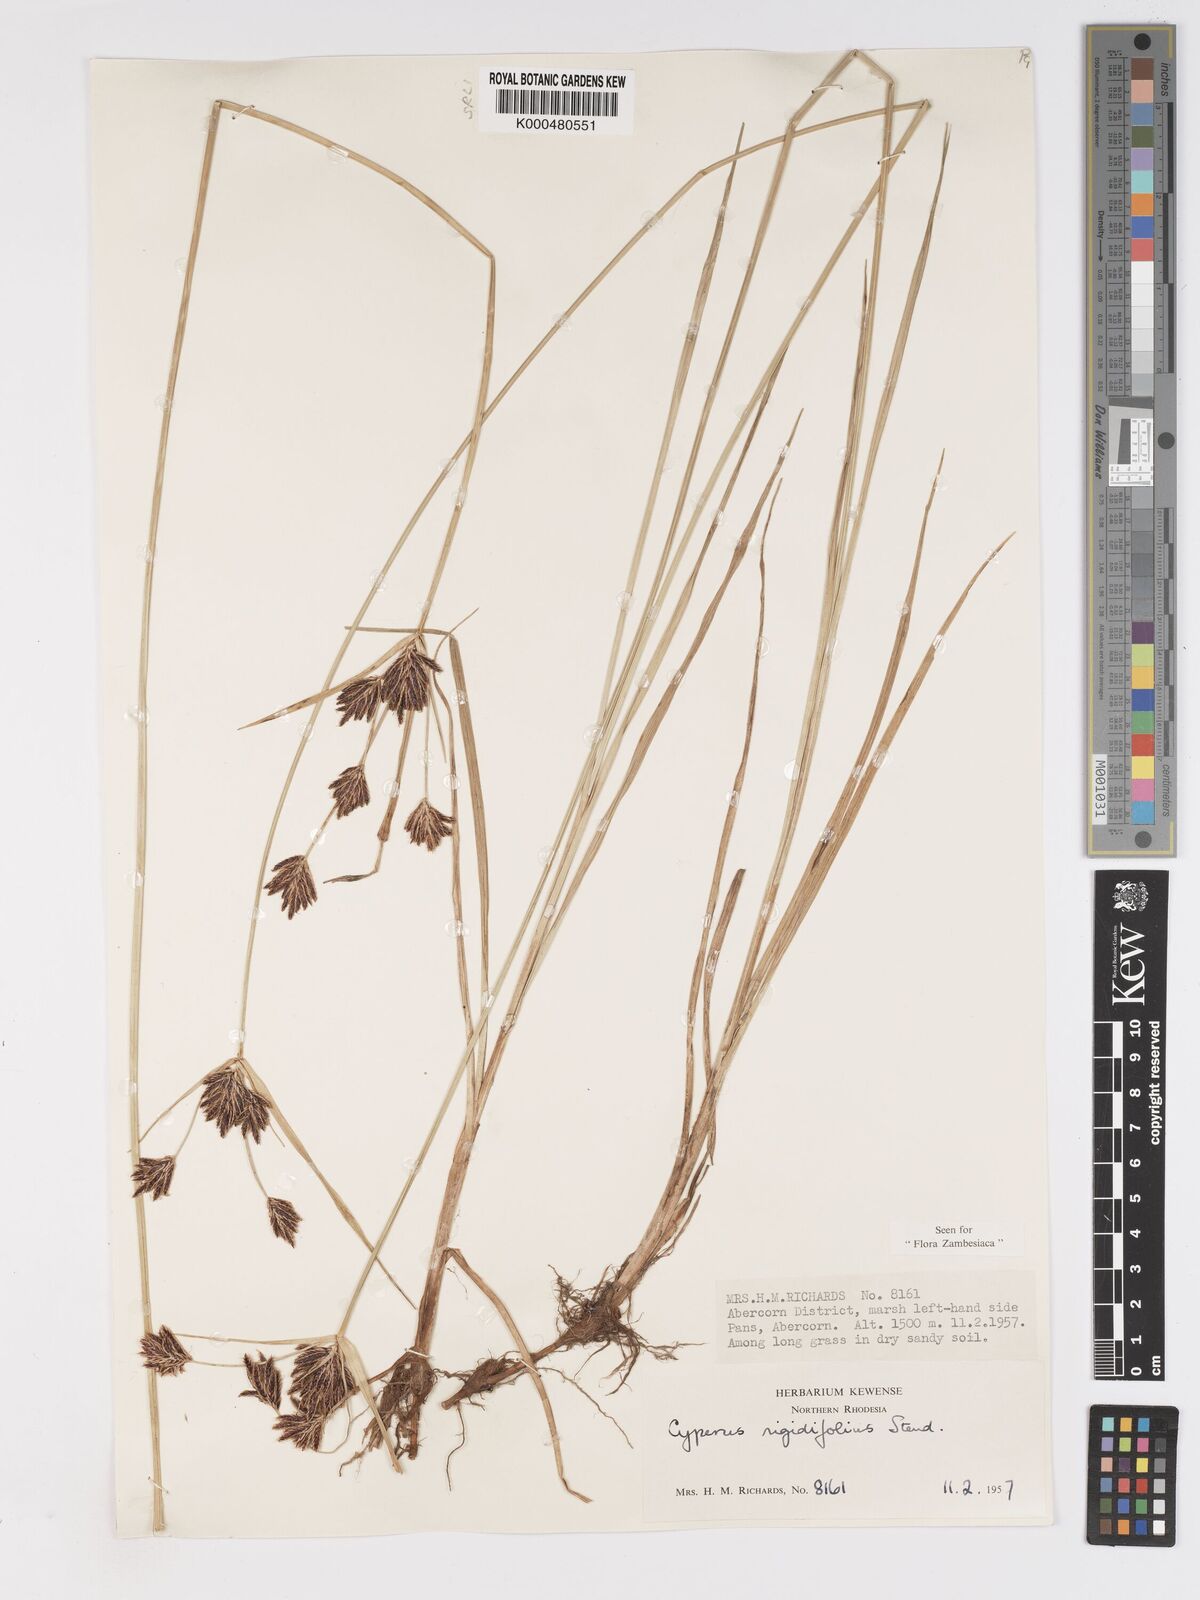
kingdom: Plantae
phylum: Tracheophyta
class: Liliopsida
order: Poales
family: Cyperaceae
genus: Cyperus
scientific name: Cyperus rigidifolius
